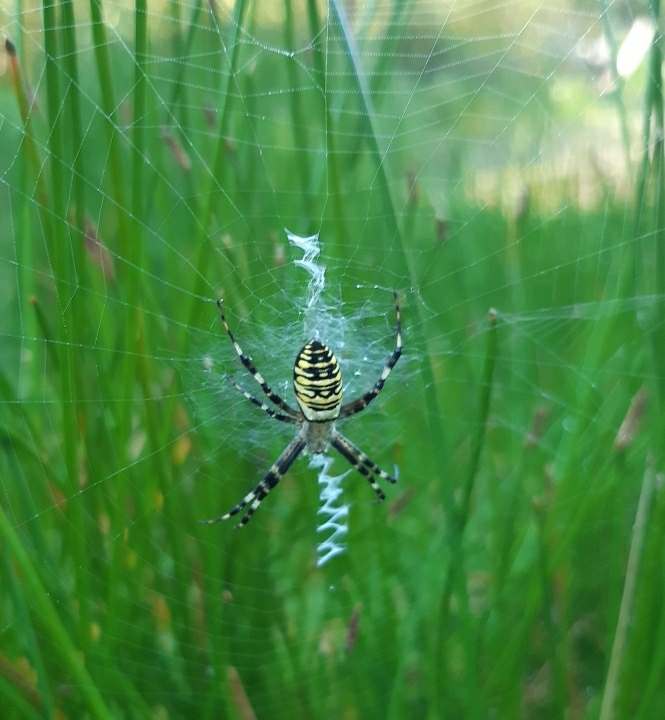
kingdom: Animalia
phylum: Arthropoda
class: Arachnida
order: Araneae
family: Araneidae
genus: Argiope
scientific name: Argiope bruennichi
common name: Hvepseedderkop
